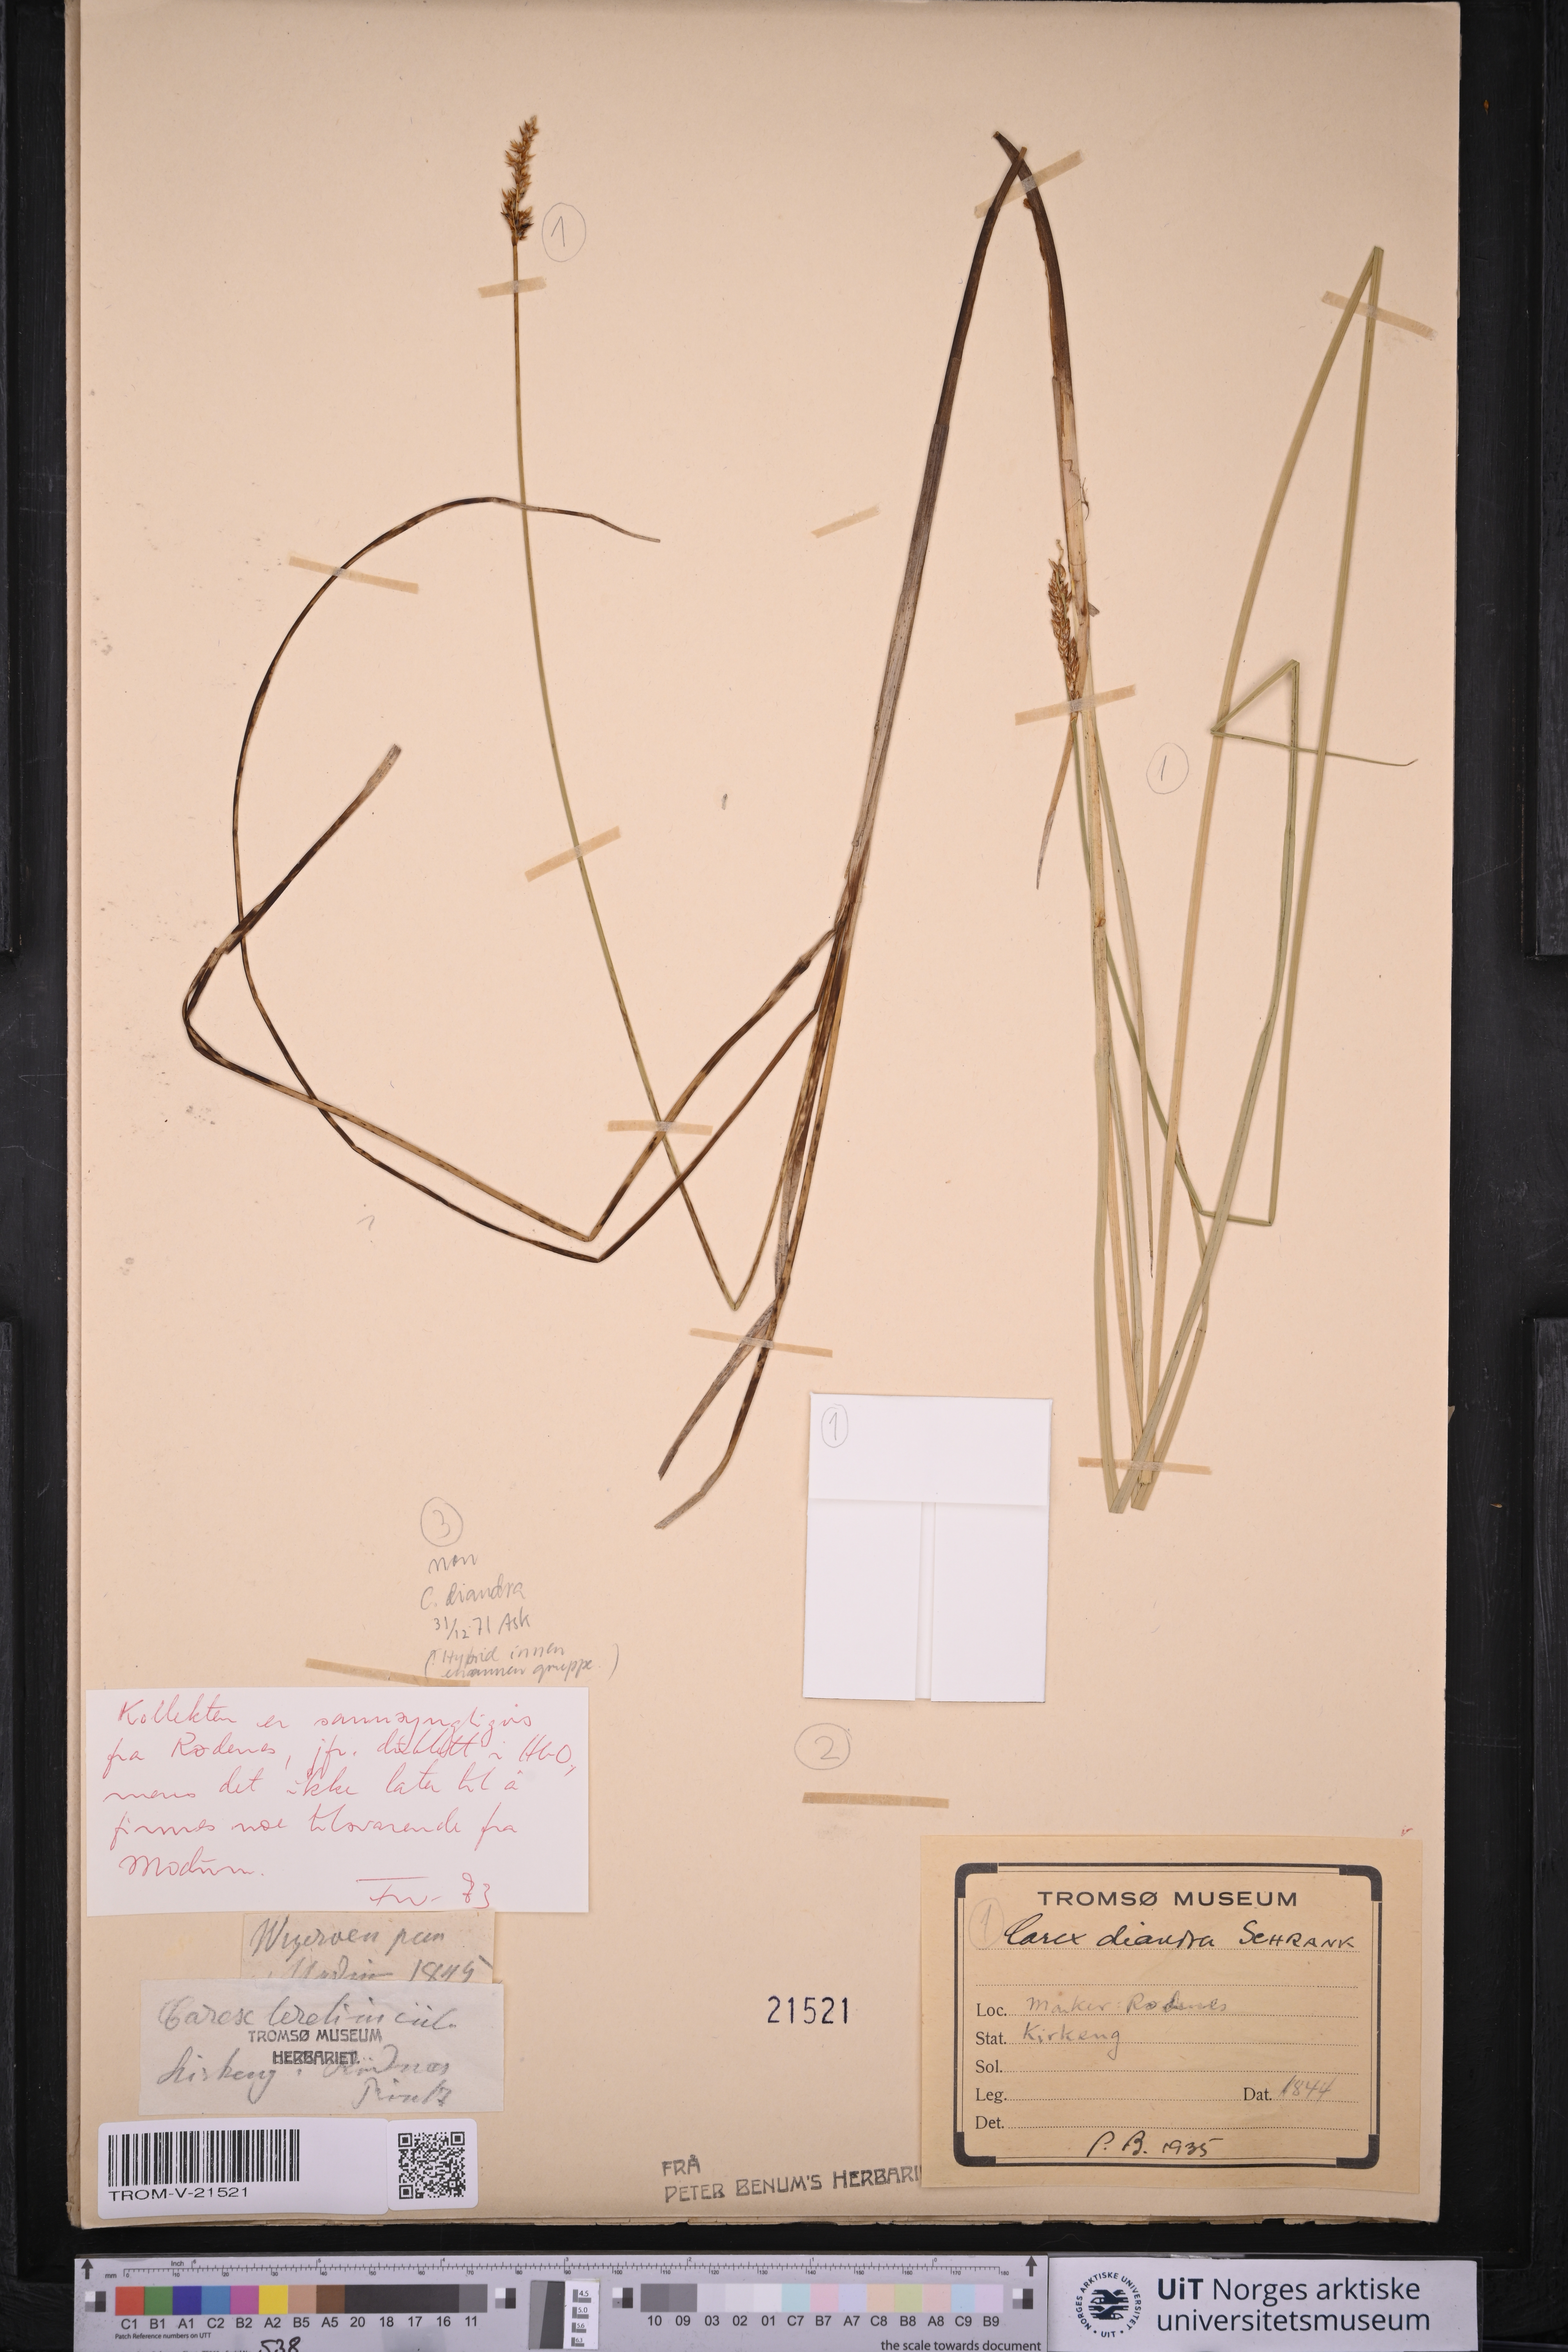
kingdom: Plantae
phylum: Tracheophyta
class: Liliopsida
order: Poales
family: Cyperaceae
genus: Carex
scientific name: Carex diandra
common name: Lesser tussock-sedge
